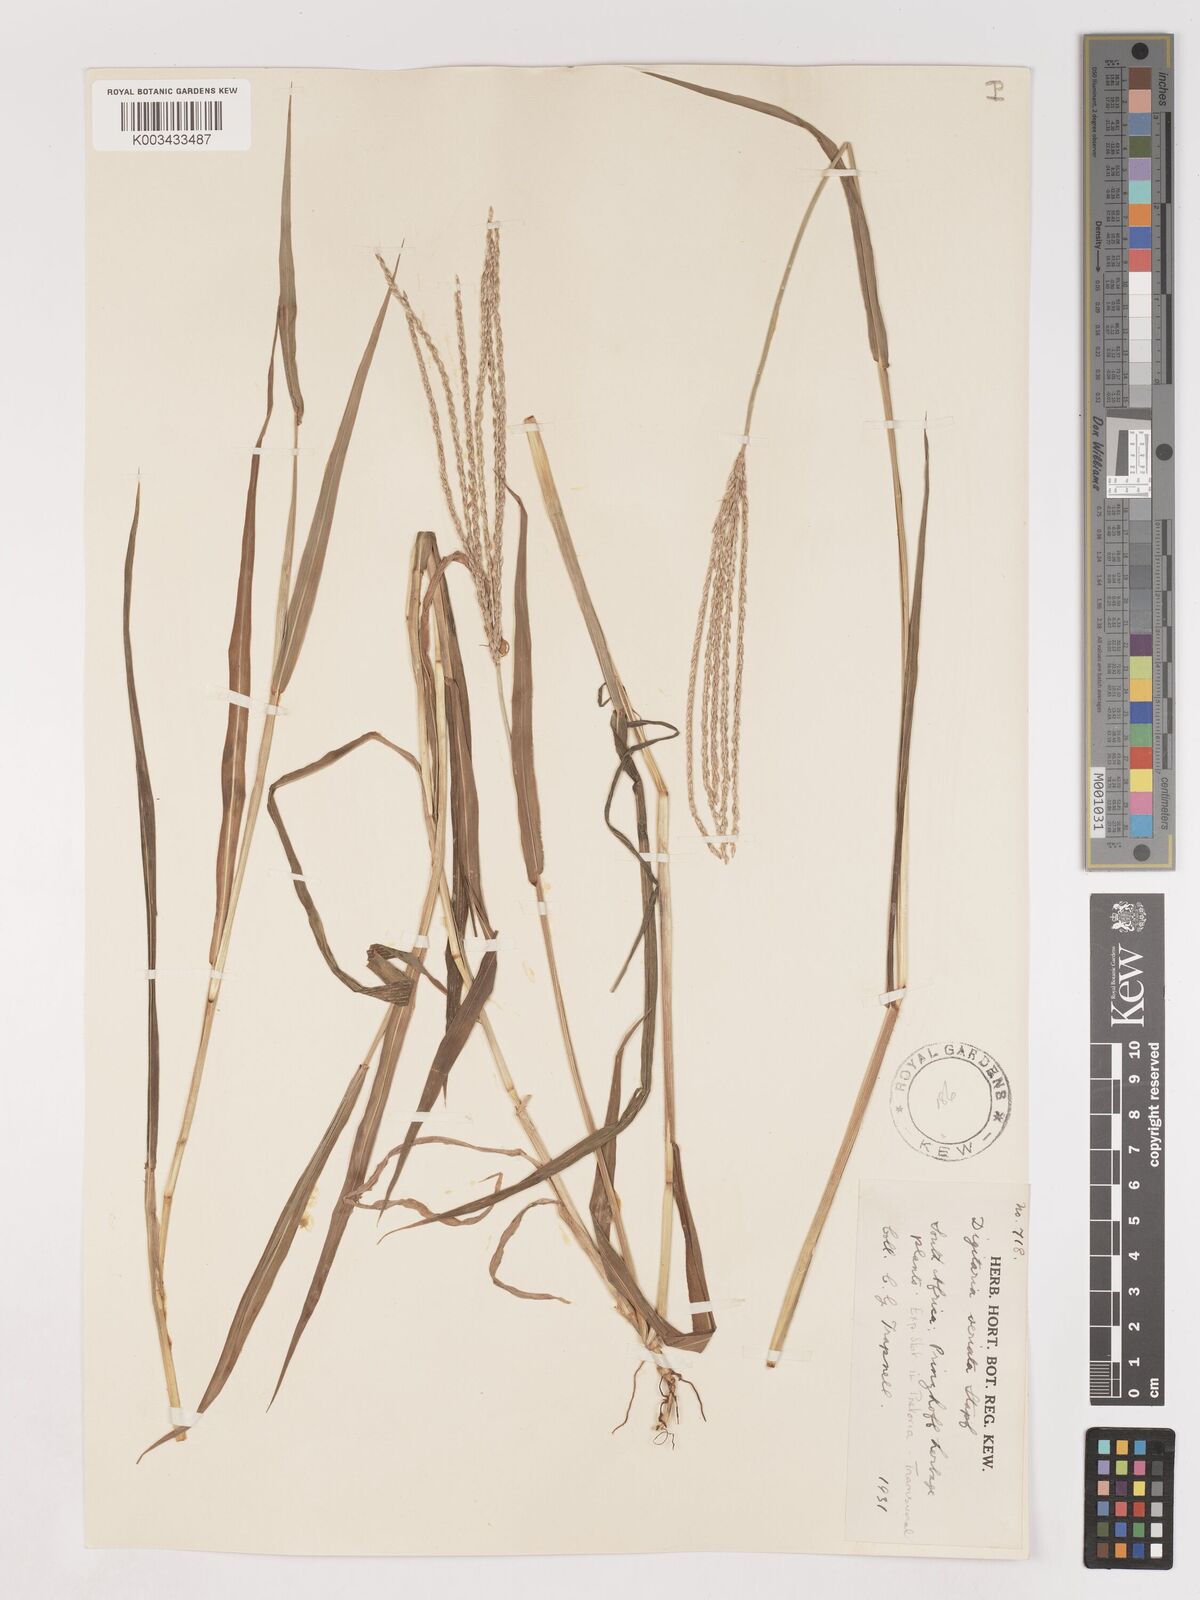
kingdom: Plantae
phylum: Tracheophyta
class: Liliopsida
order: Poales
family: Poaceae
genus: Digitaria
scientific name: Digitaria eriantha
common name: Digitgrass
